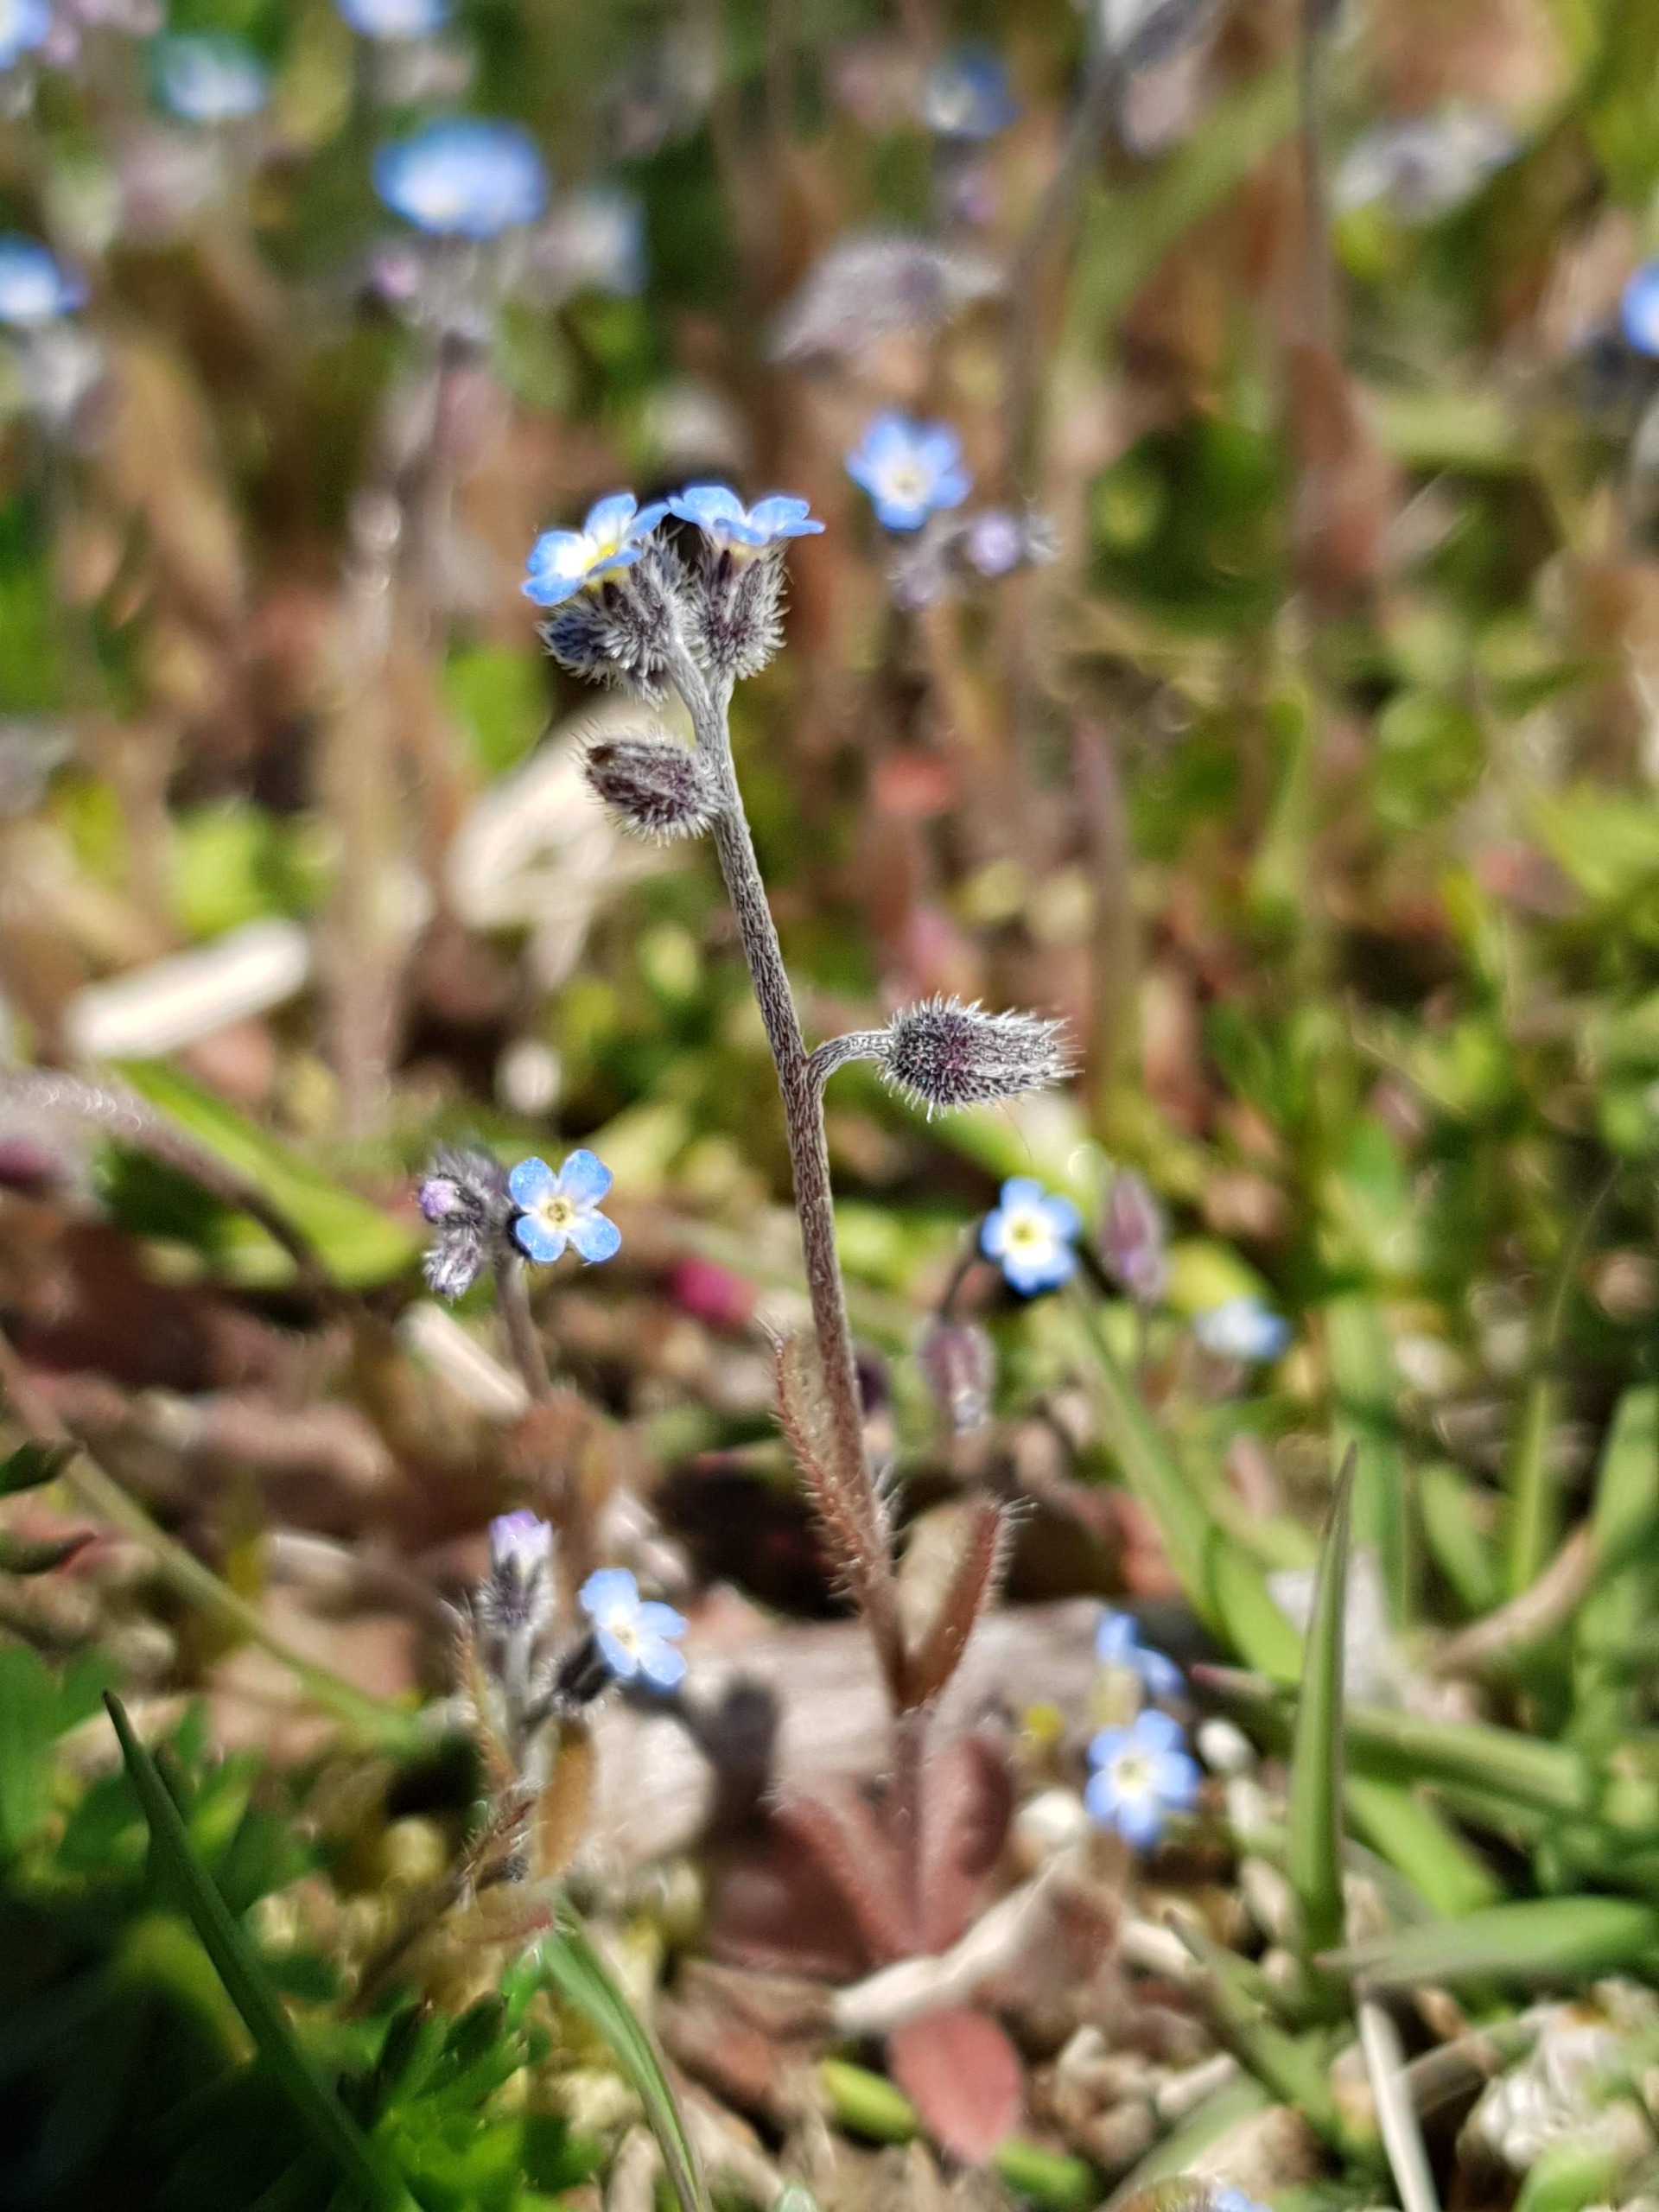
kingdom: Plantae
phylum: Tracheophyta
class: Magnoliopsida
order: Boraginales
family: Boraginaceae
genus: Myosotis
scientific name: Myosotis ramosissima
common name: Bakke-forglemmigej
